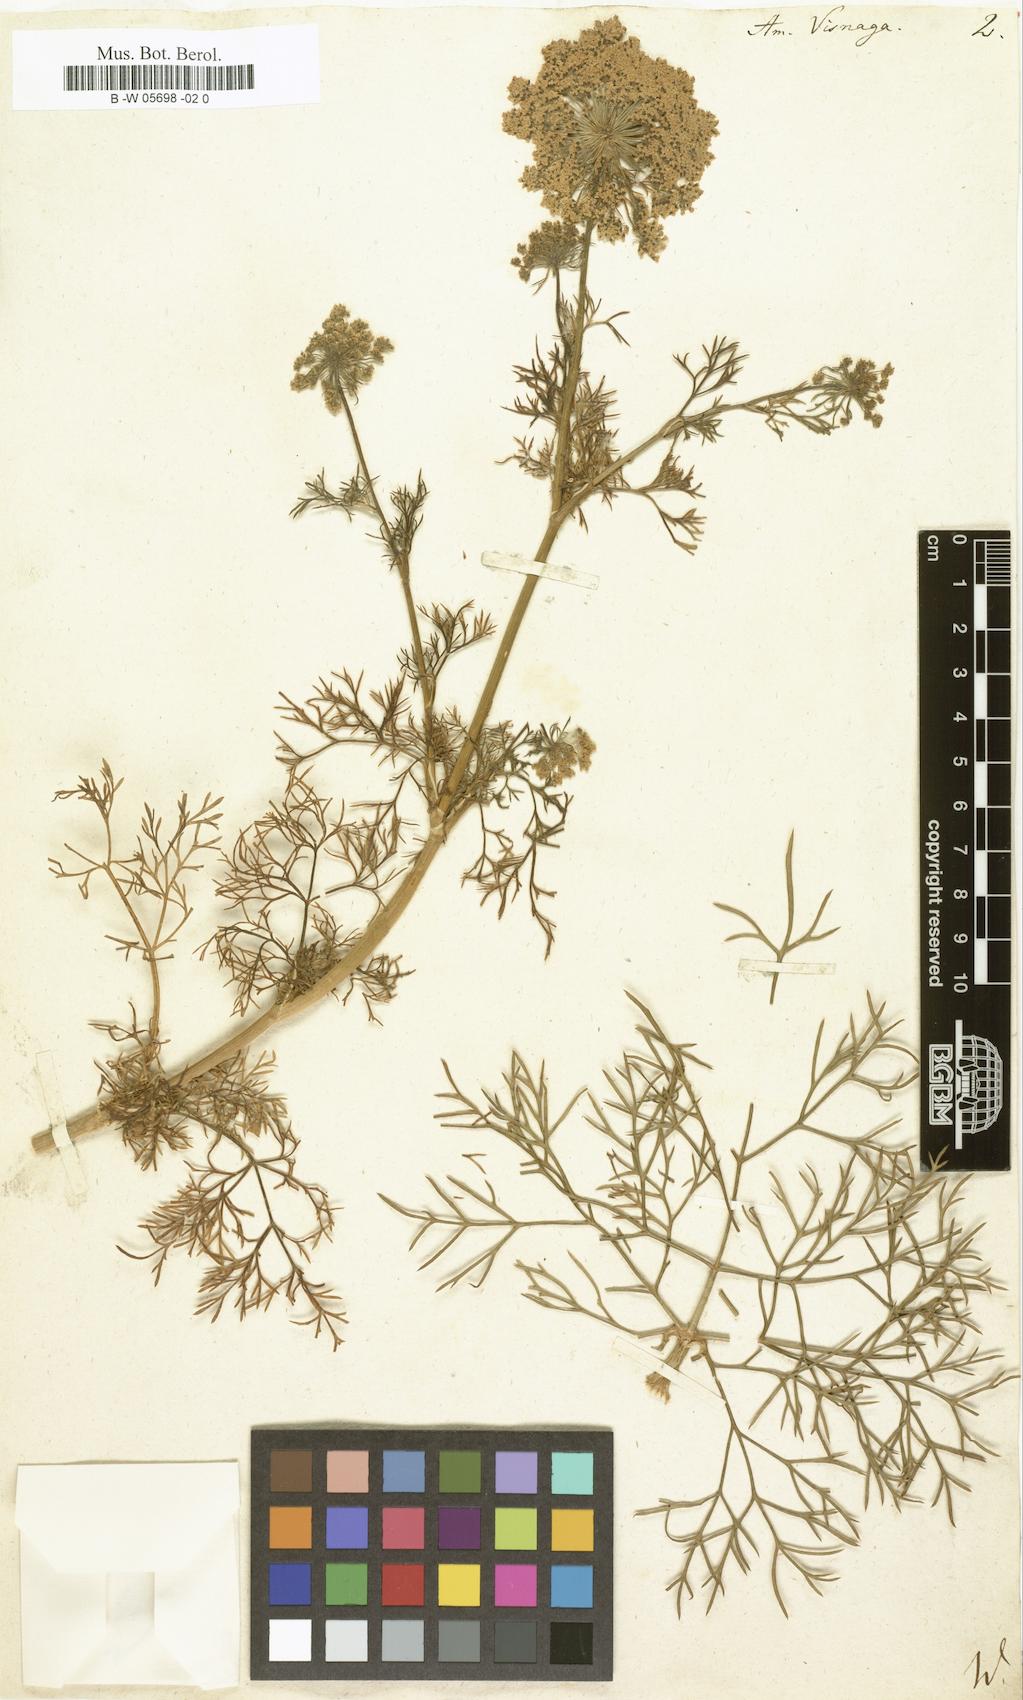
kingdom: Plantae
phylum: Tracheophyta
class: Magnoliopsida
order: Apiales
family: Apiaceae
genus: Visnaga
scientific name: Visnaga daucoides
